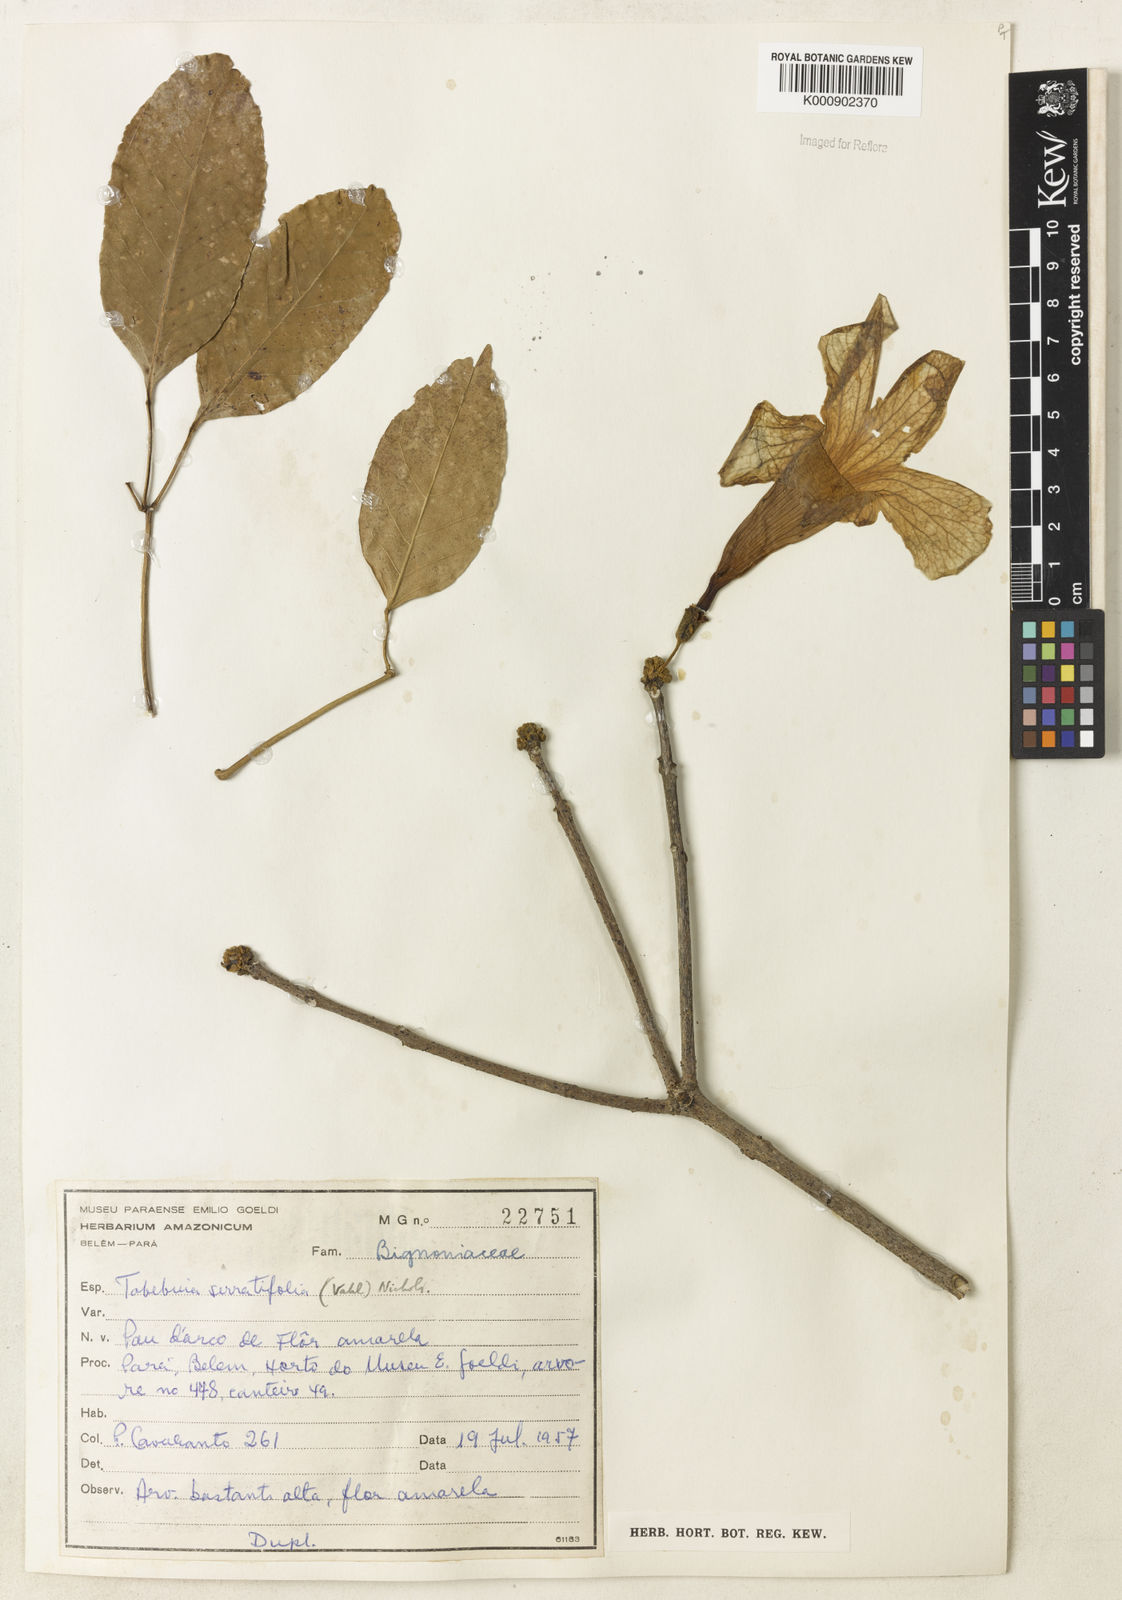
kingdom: Plantae
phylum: Tracheophyta
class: Magnoliopsida
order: Lamiales
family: Bignoniaceae
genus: Handroanthus
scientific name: Handroanthus serratifolius
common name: Yellow ipe
